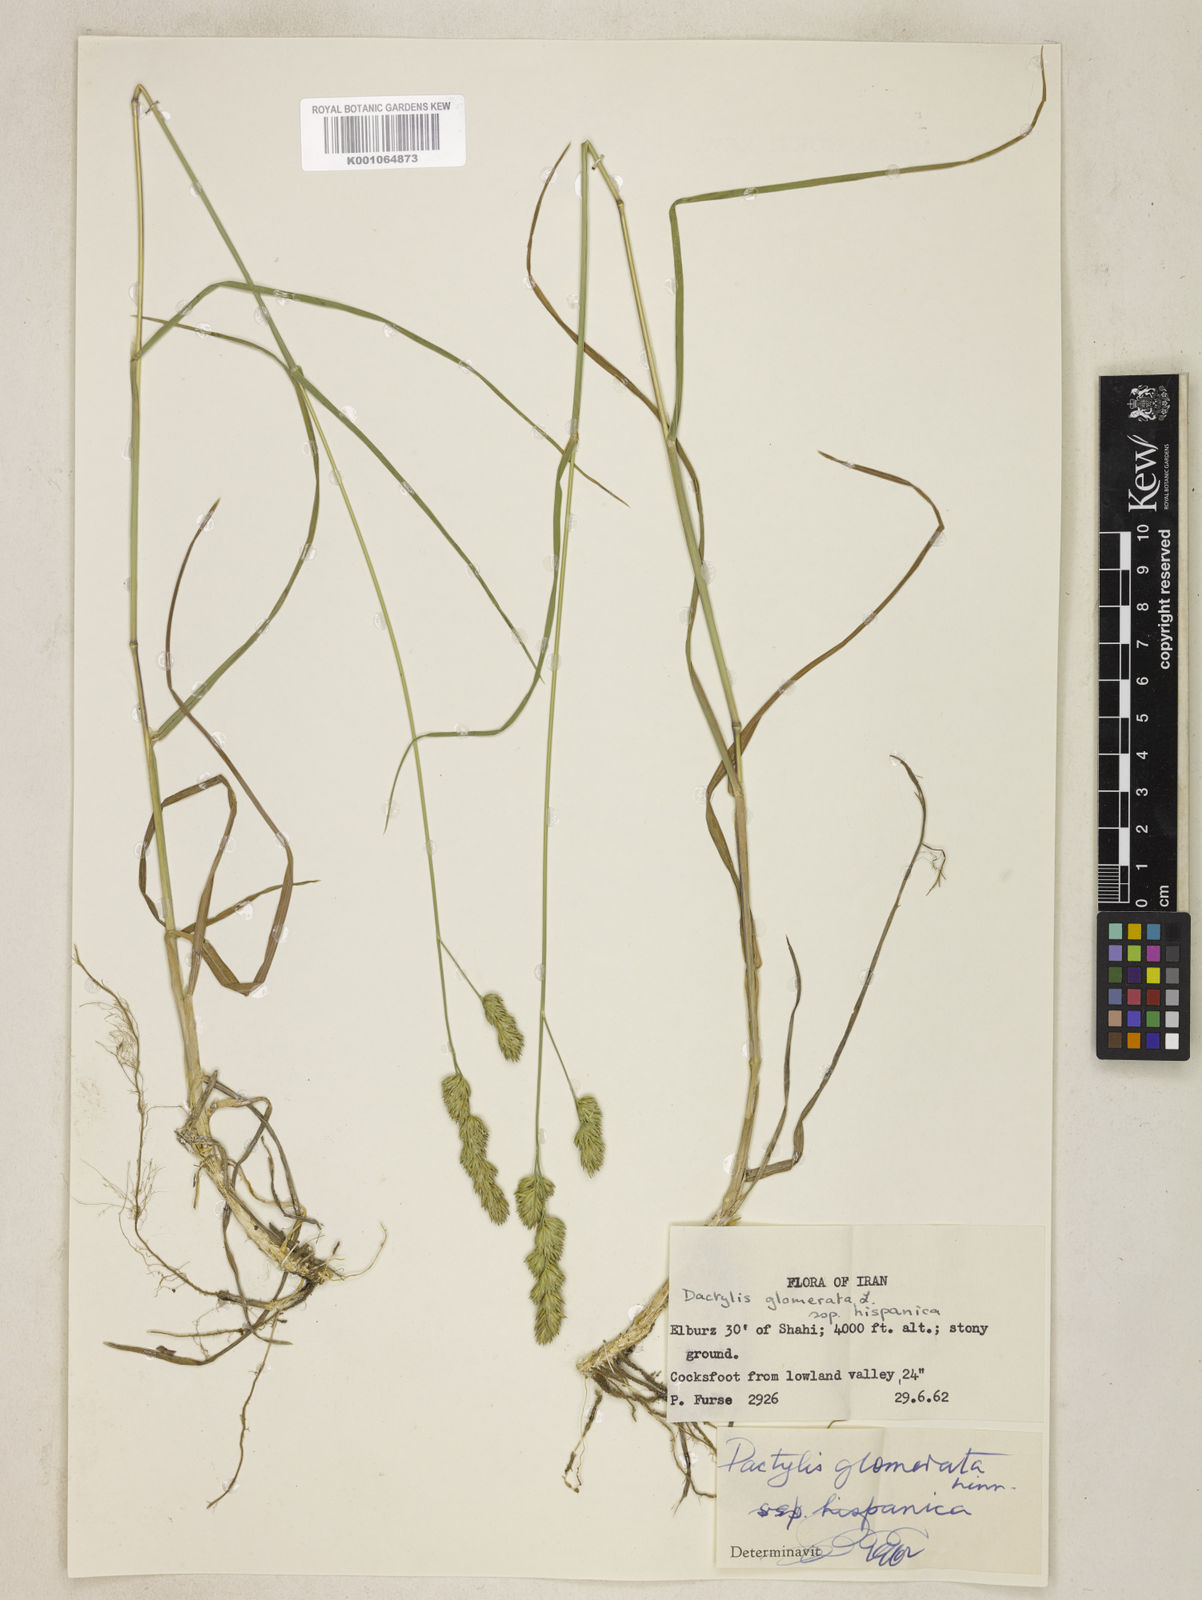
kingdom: Plantae
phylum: Tracheophyta
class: Liliopsida
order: Poales
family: Poaceae
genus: Dactylis
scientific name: Dactylis glomerata
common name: Orchardgrass
